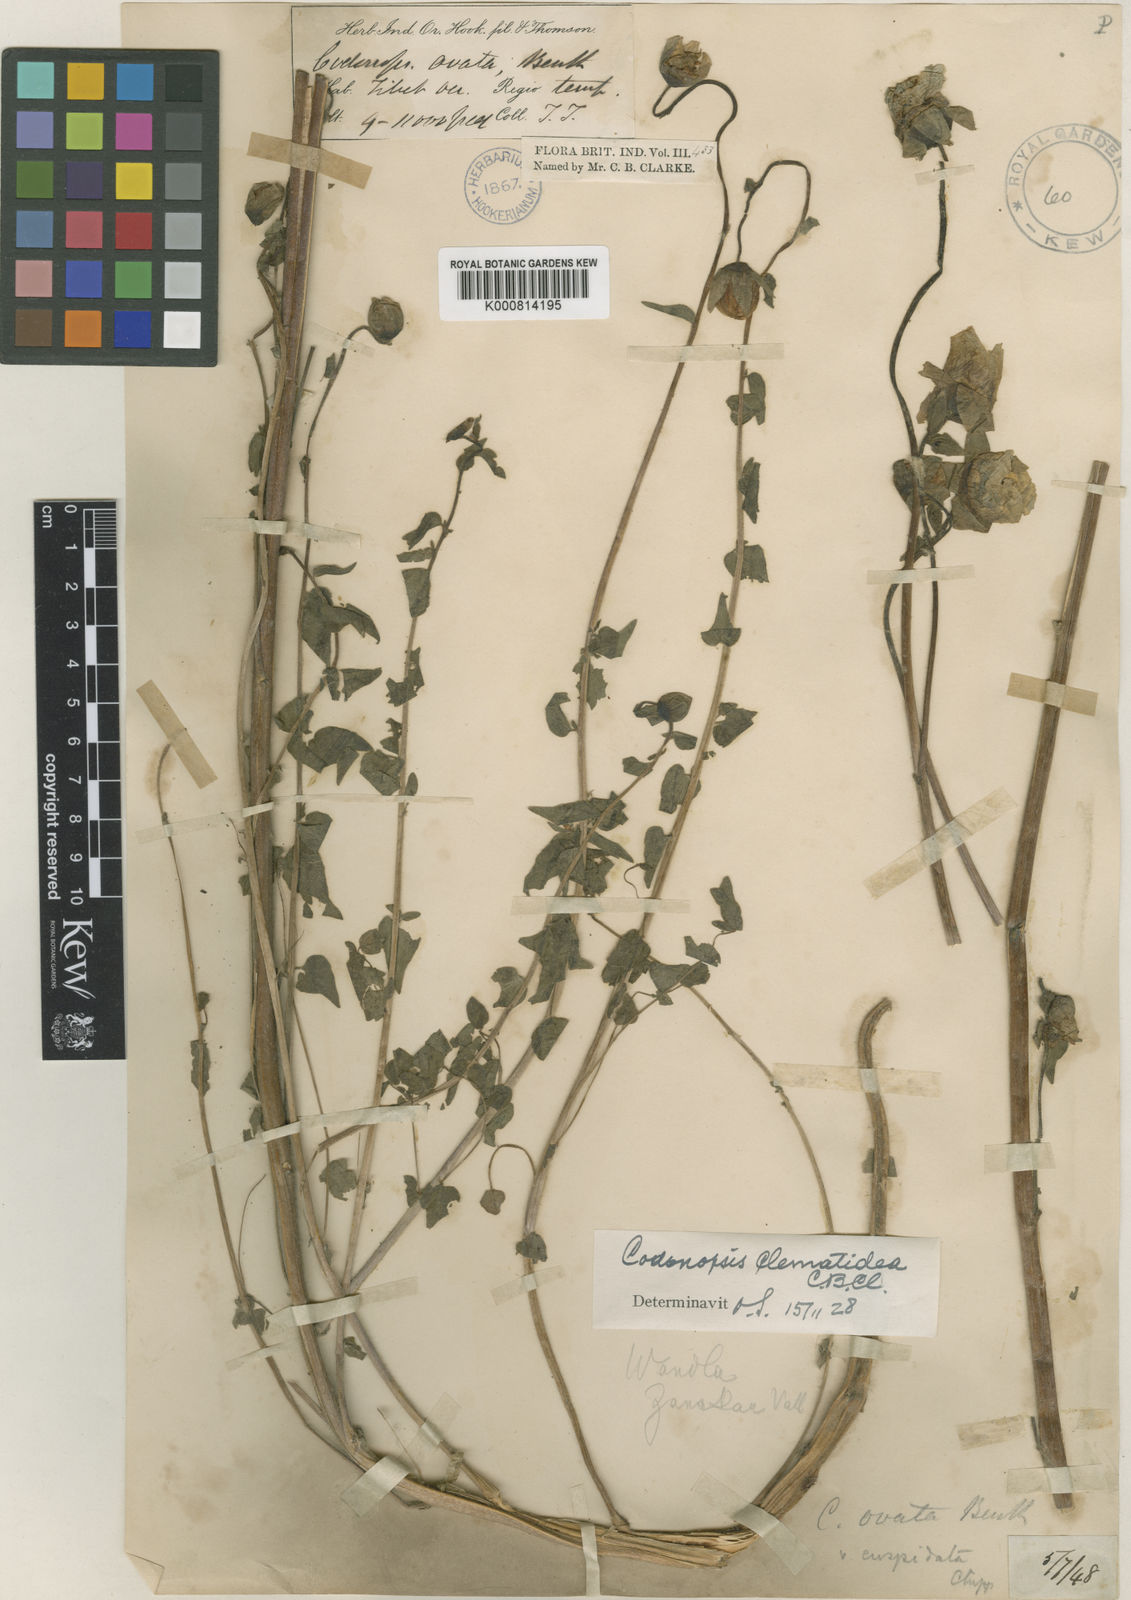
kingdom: Plantae
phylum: Tracheophyta
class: Magnoliopsida
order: Asterales
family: Campanulaceae
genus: Codonopsis
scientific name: Codonopsis clematidea
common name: Bonnet-bellflower
